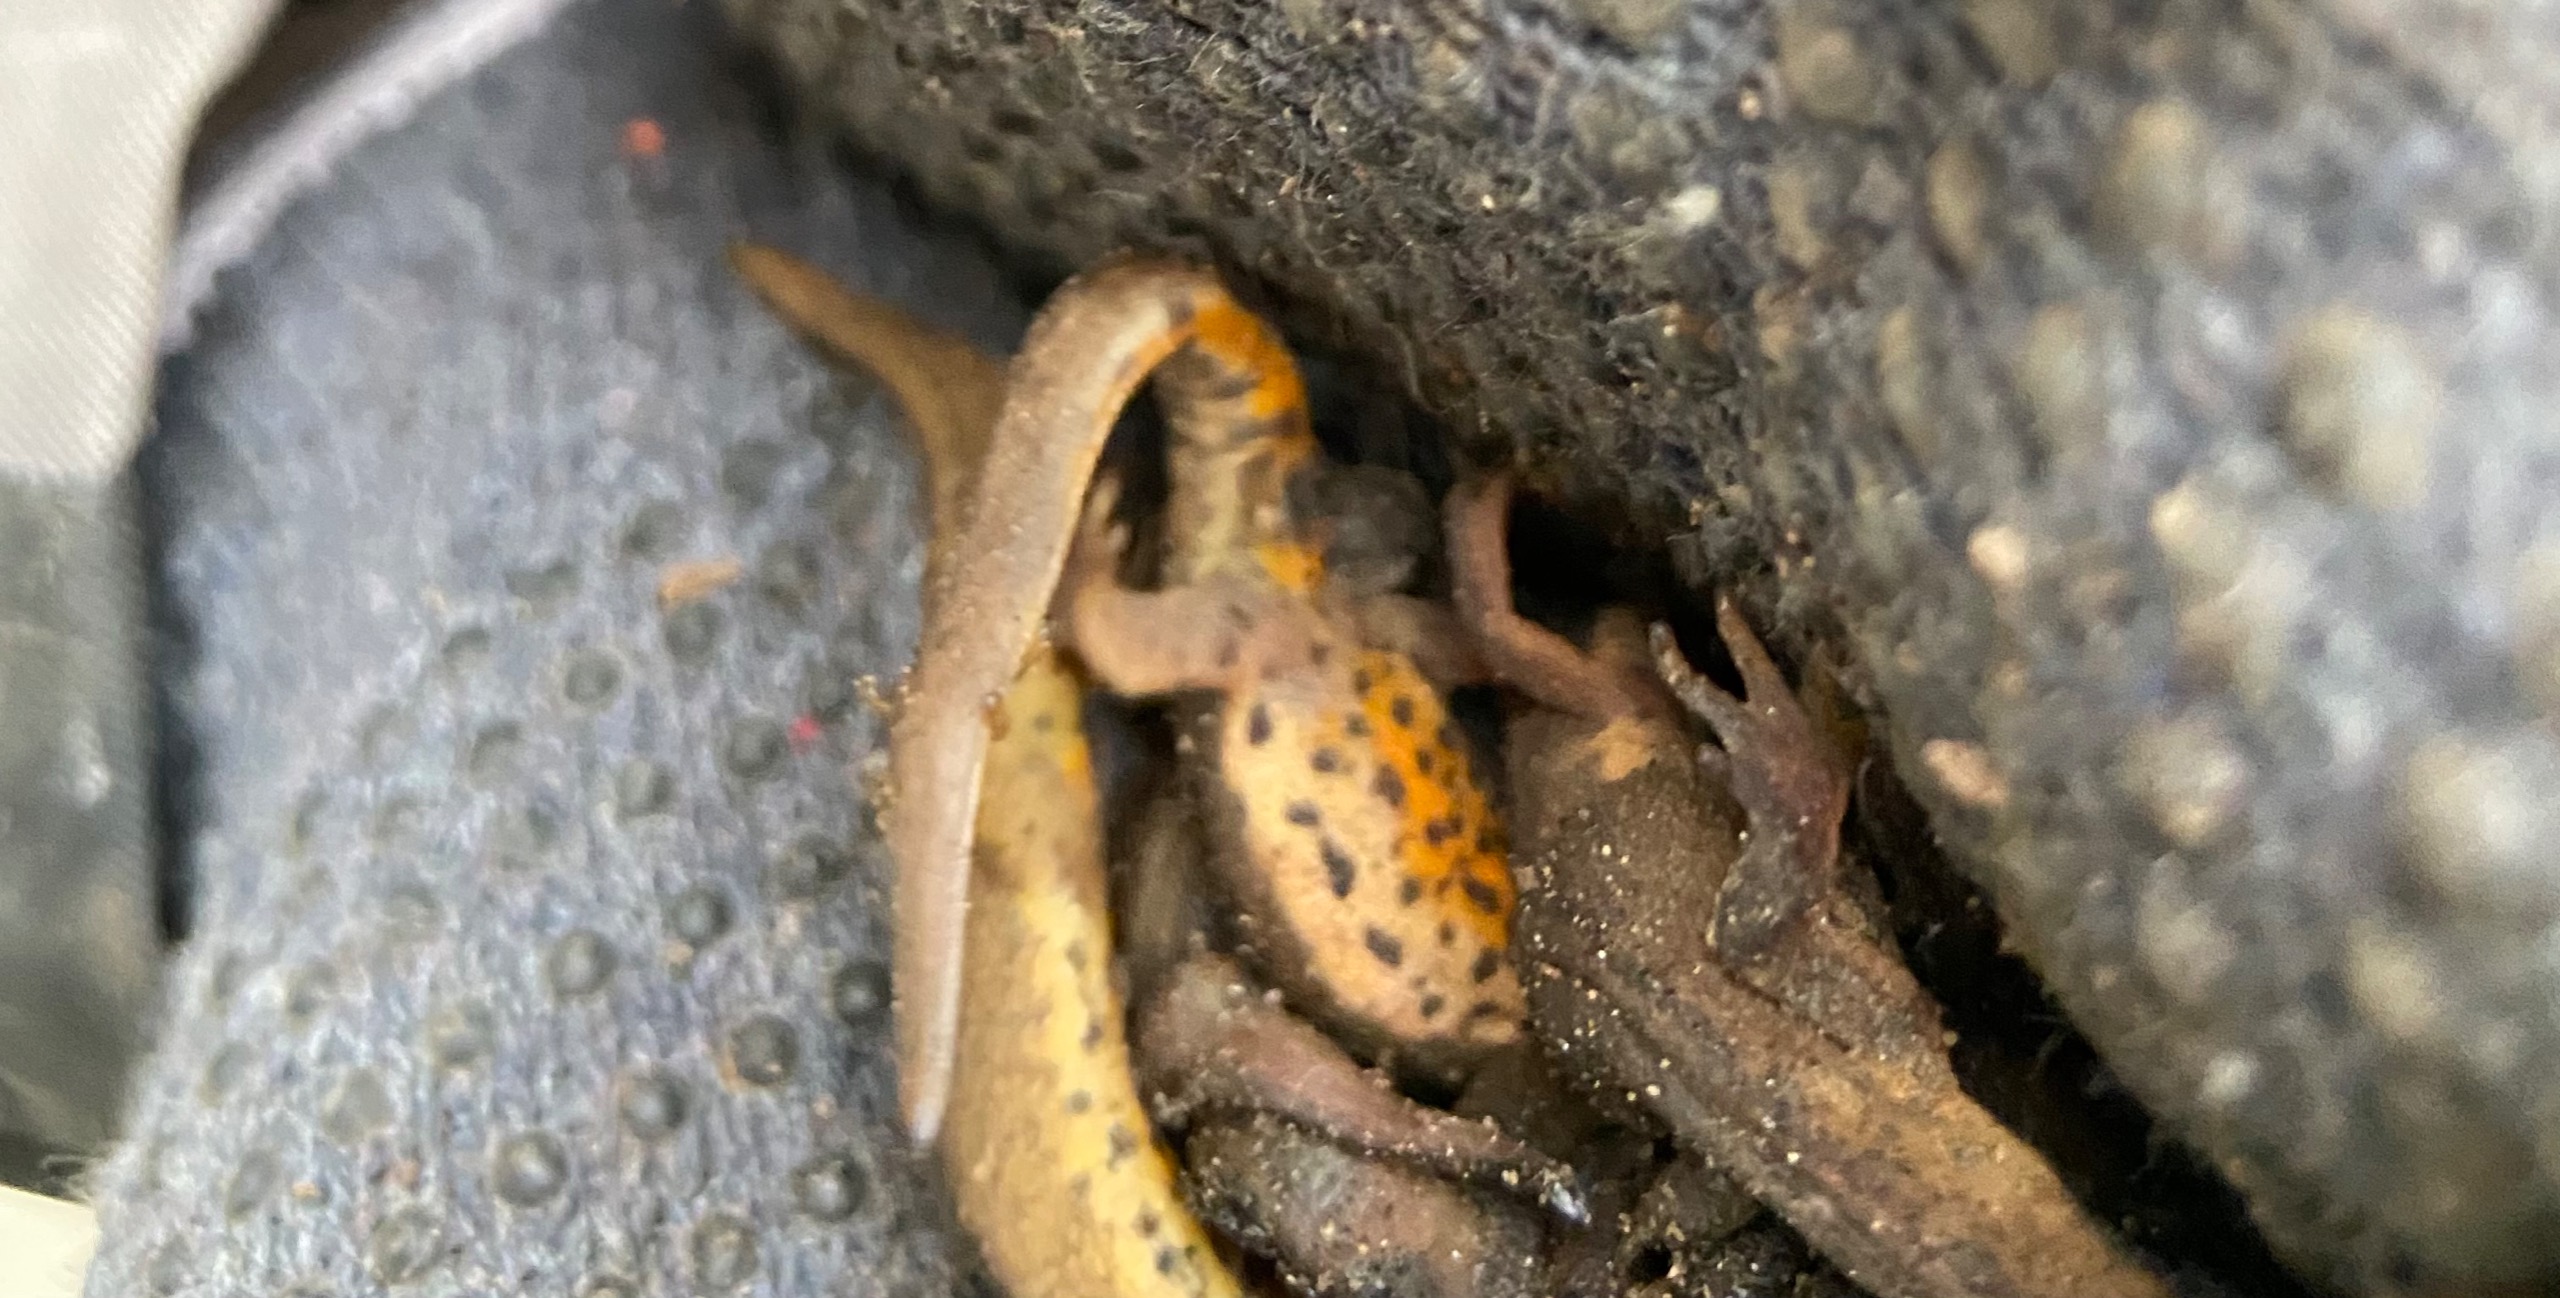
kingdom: Animalia
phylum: Chordata
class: Amphibia
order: Caudata
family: Salamandridae
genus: Lissotriton
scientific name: Lissotriton vulgaris
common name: Lille vandsalamander
